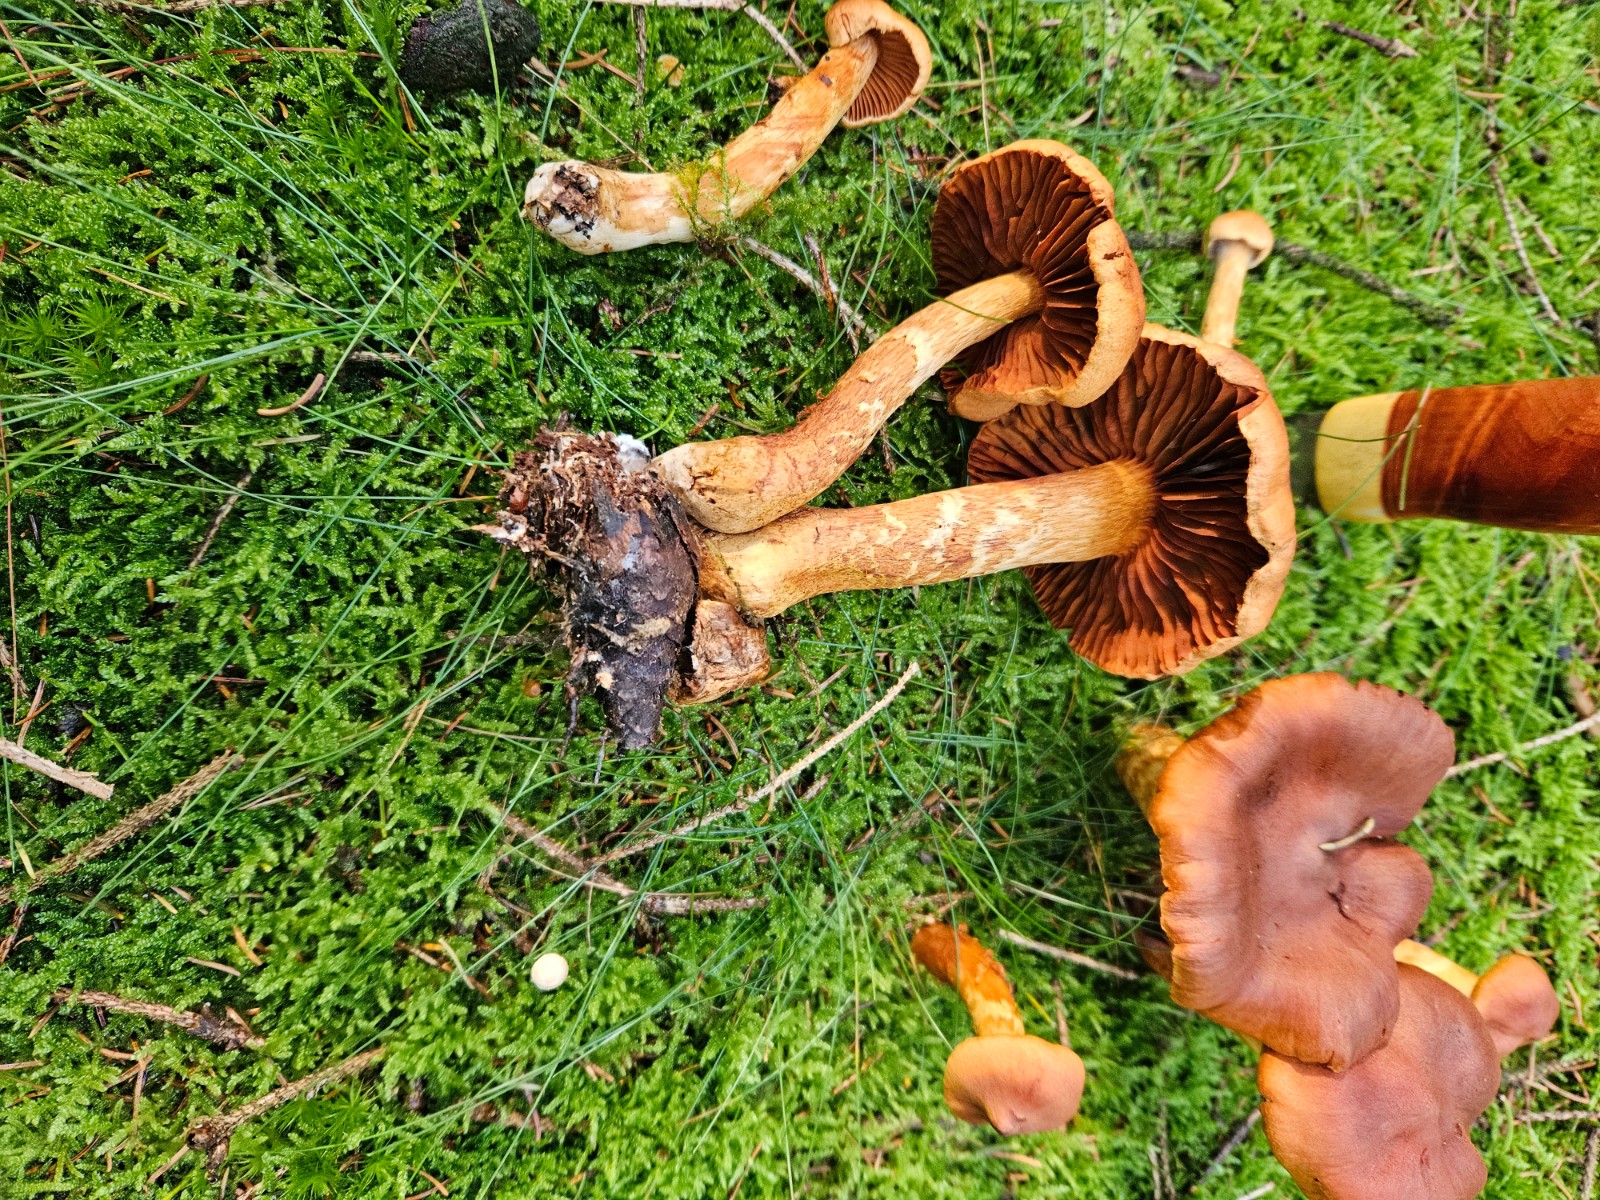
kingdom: Fungi
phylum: Basidiomycota
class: Agaricomycetes
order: Agaricales
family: Cortinariaceae
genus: Cortinarius
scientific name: Cortinarius rubellus
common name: puklet gift-slørhat
